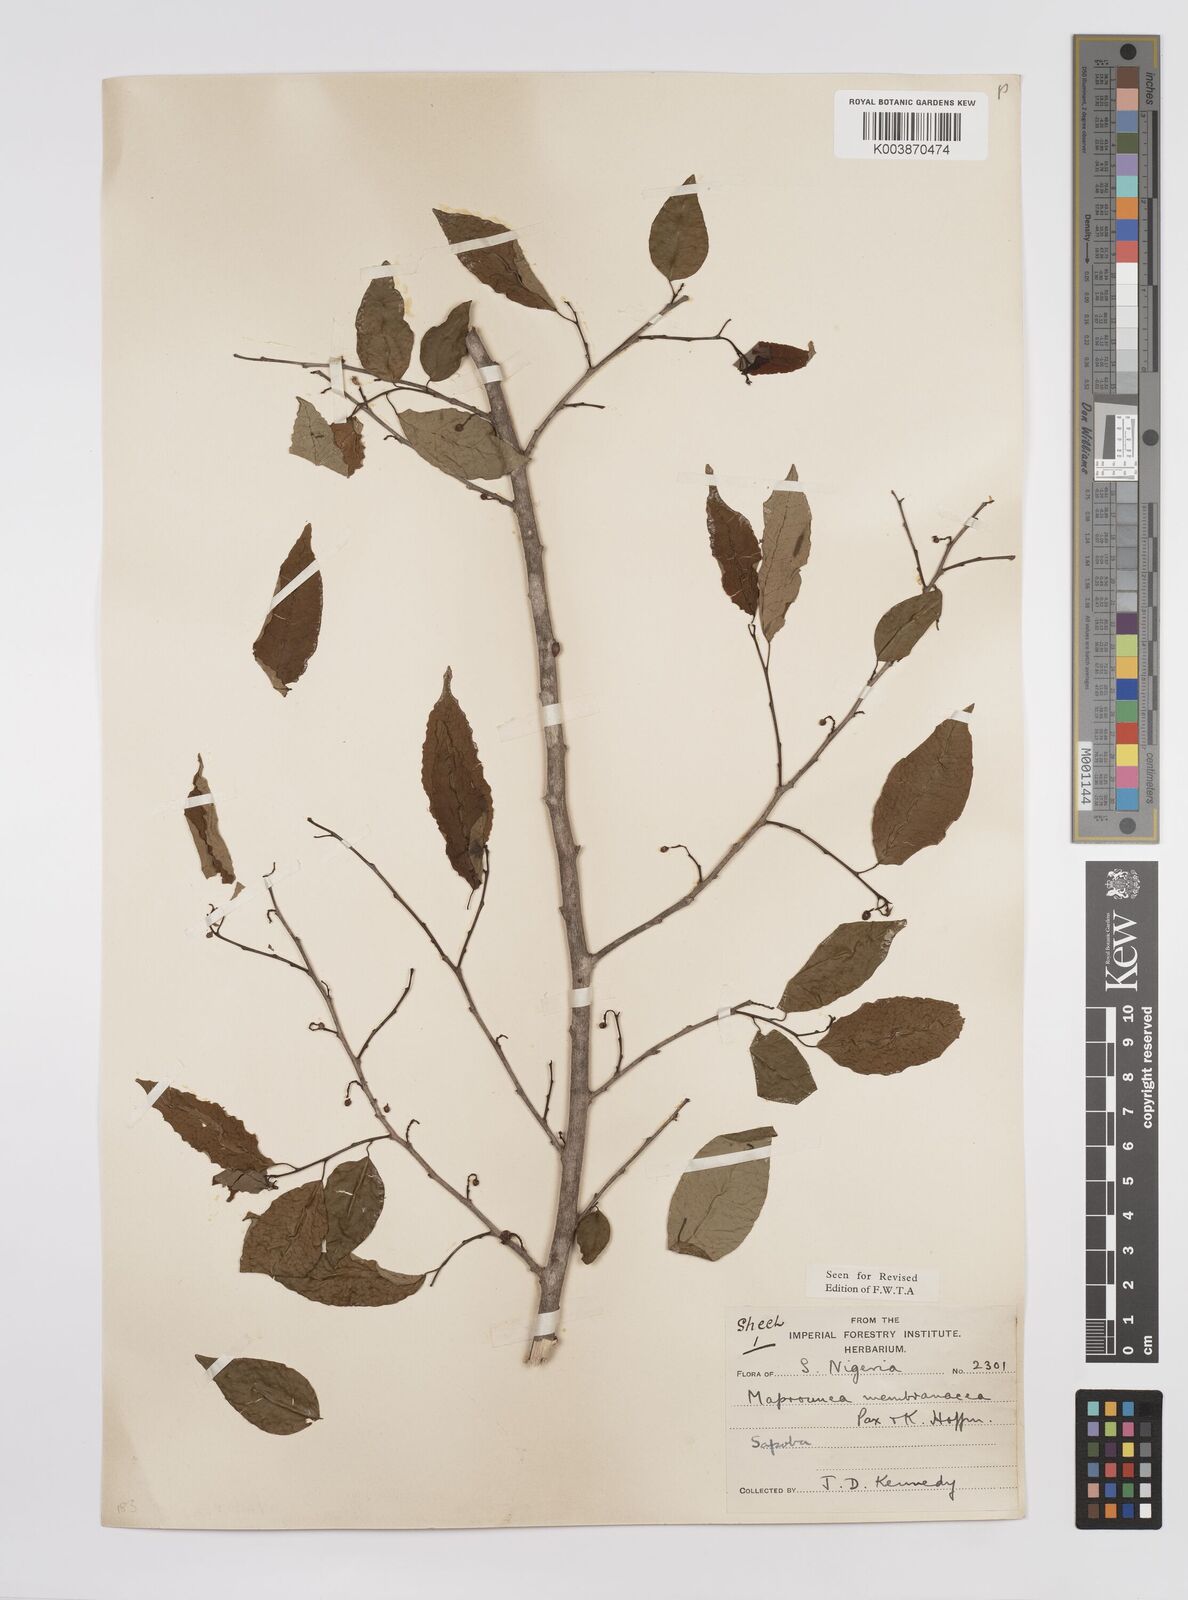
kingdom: Plantae
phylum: Tracheophyta
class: Magnoliopsida
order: Malpighiales
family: Euphorbiaceae
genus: Maprounea
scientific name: Maprounea membranacea
